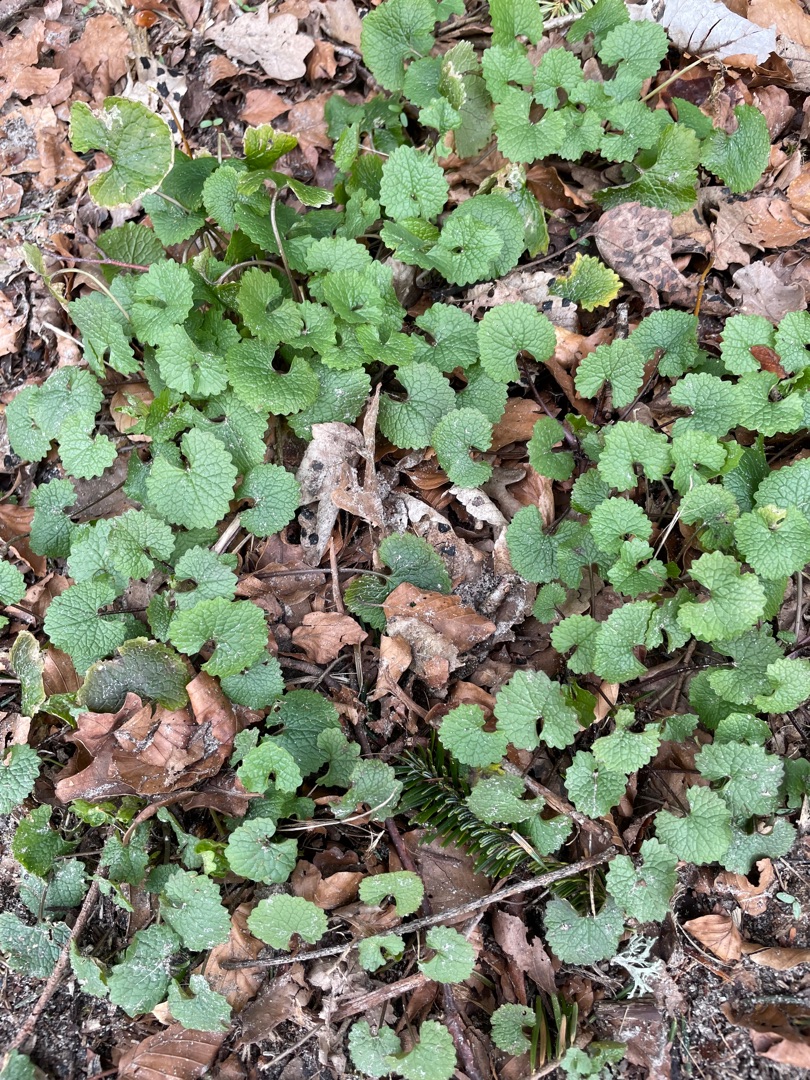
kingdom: Plantae
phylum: Tracheophyta
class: Magnoliopsida
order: Brassicales
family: Brassicaceae
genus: Alliaria
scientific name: Alliaria petiolata
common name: Løgkarse
